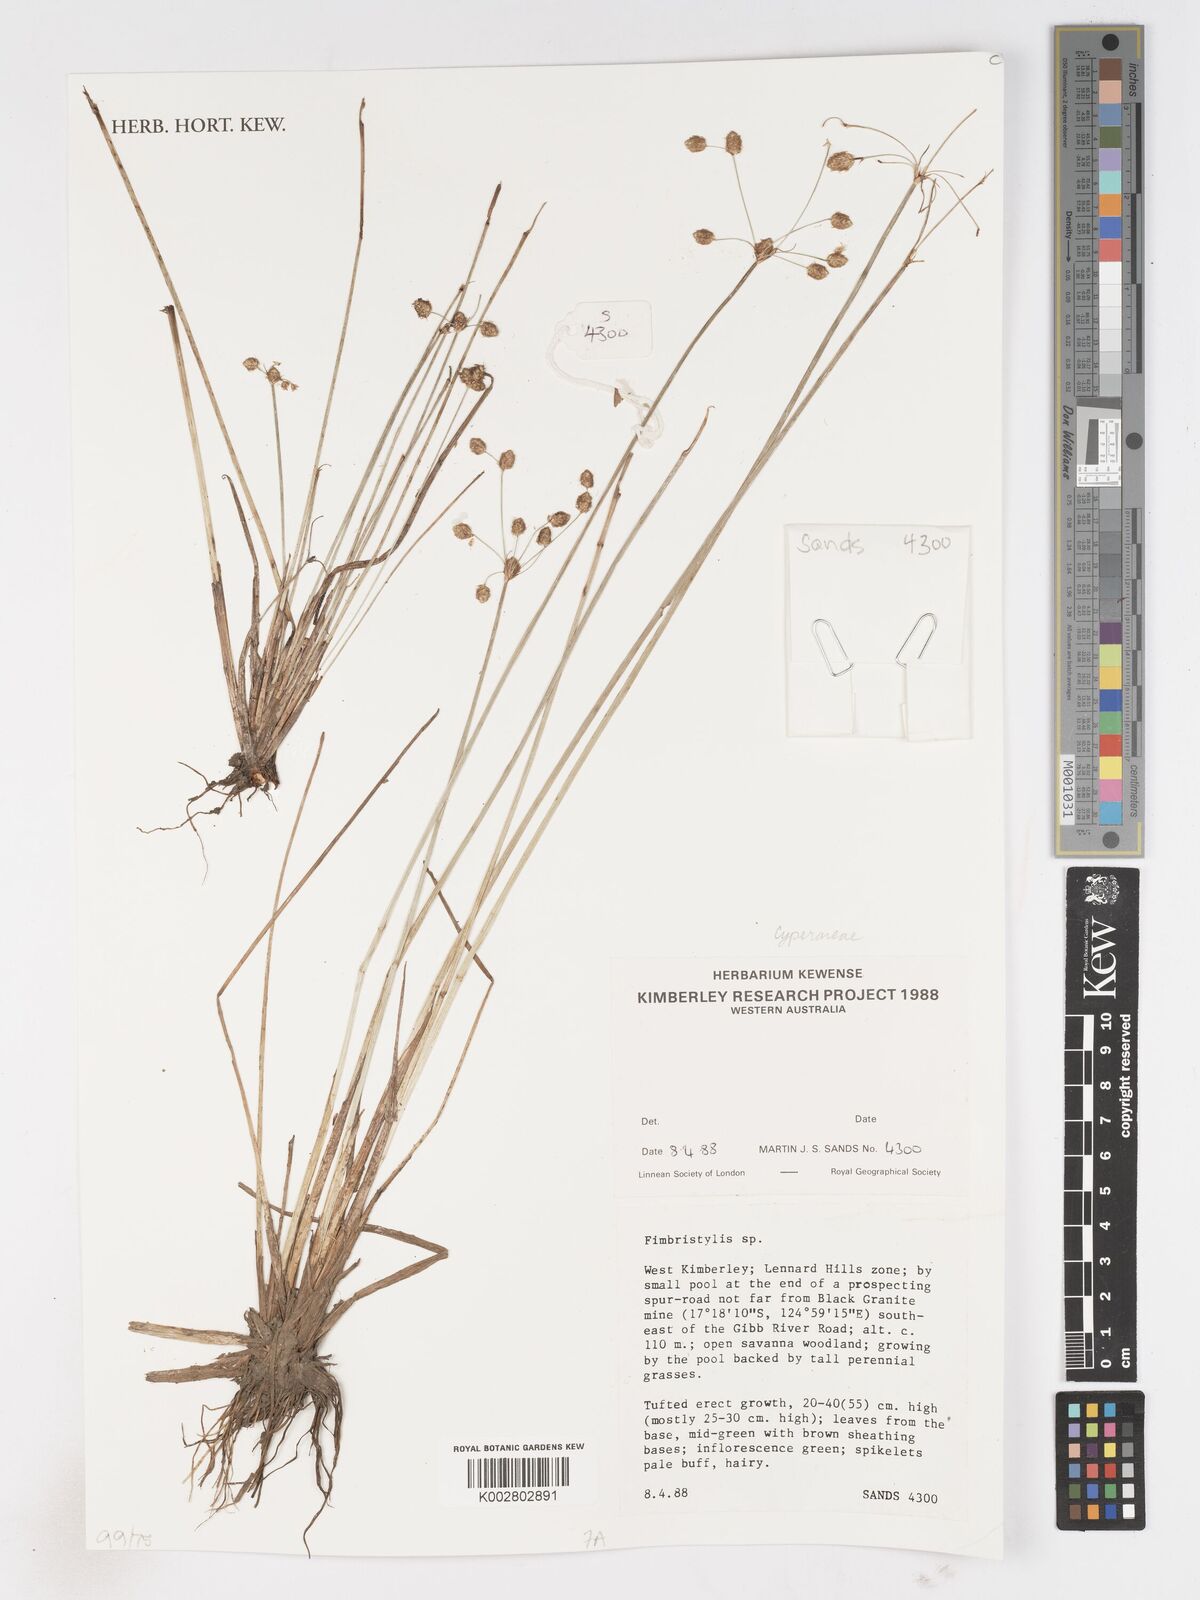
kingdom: Plantae
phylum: Tracheophyta
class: Liliopsida
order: Poales
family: Cyperaceae
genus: Fimbristylis
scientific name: Fimbristylis
